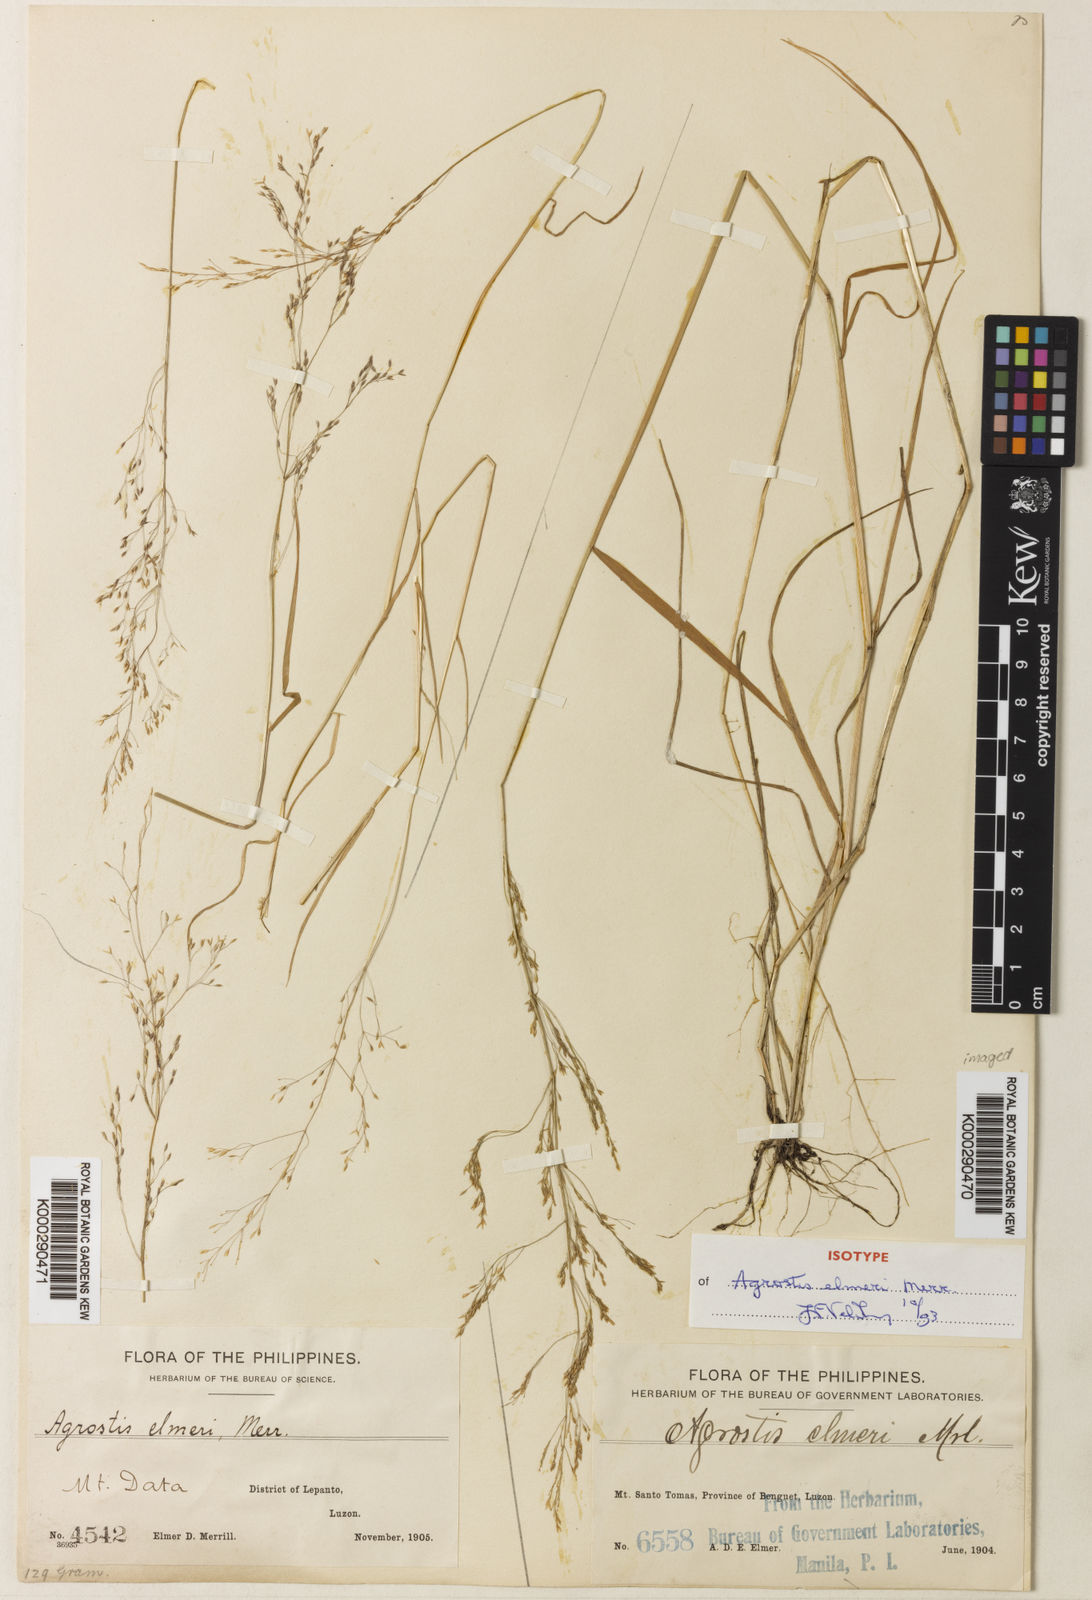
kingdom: Plantae
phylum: Tracheophyta
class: Liliopsida
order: Poales
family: Poaceae
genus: Agrostis
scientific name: Agrostis infirma
